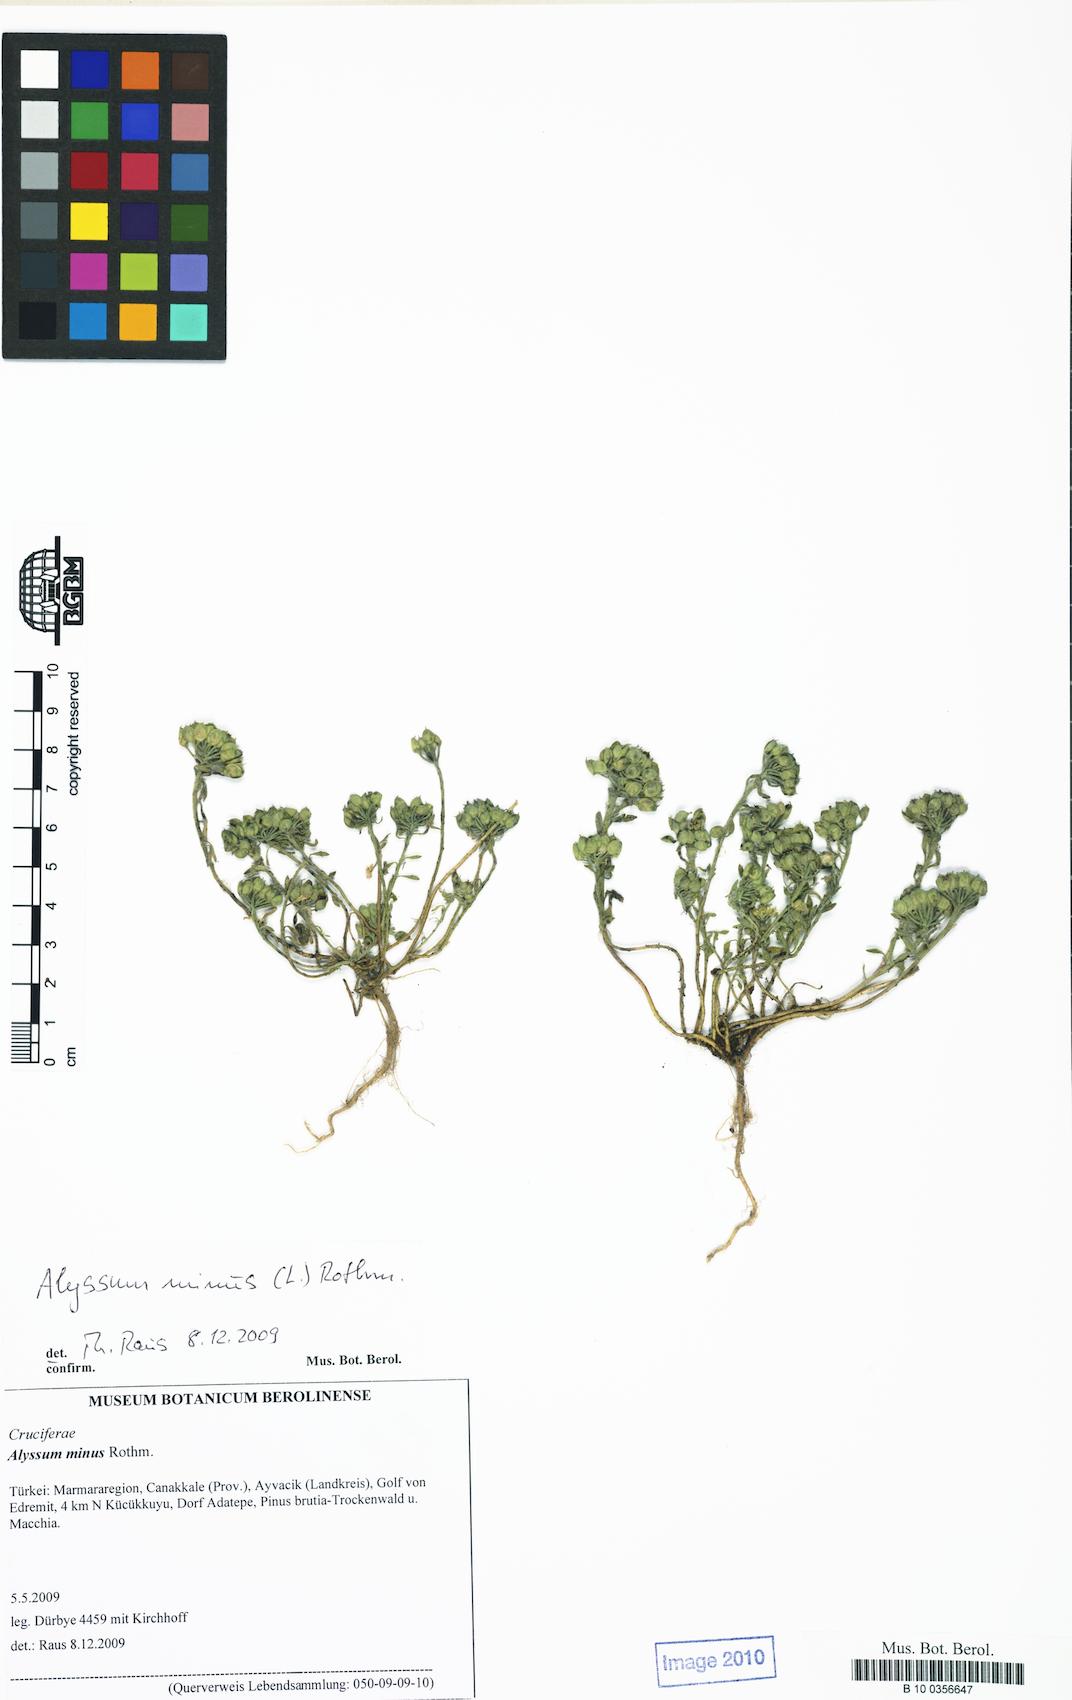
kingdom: Plantae
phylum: Tracheophyta
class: Magnoliopsida
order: Brassicales
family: Brassicaceae
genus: Alyssum
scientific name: Alyssum simplex
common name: Alyssum
